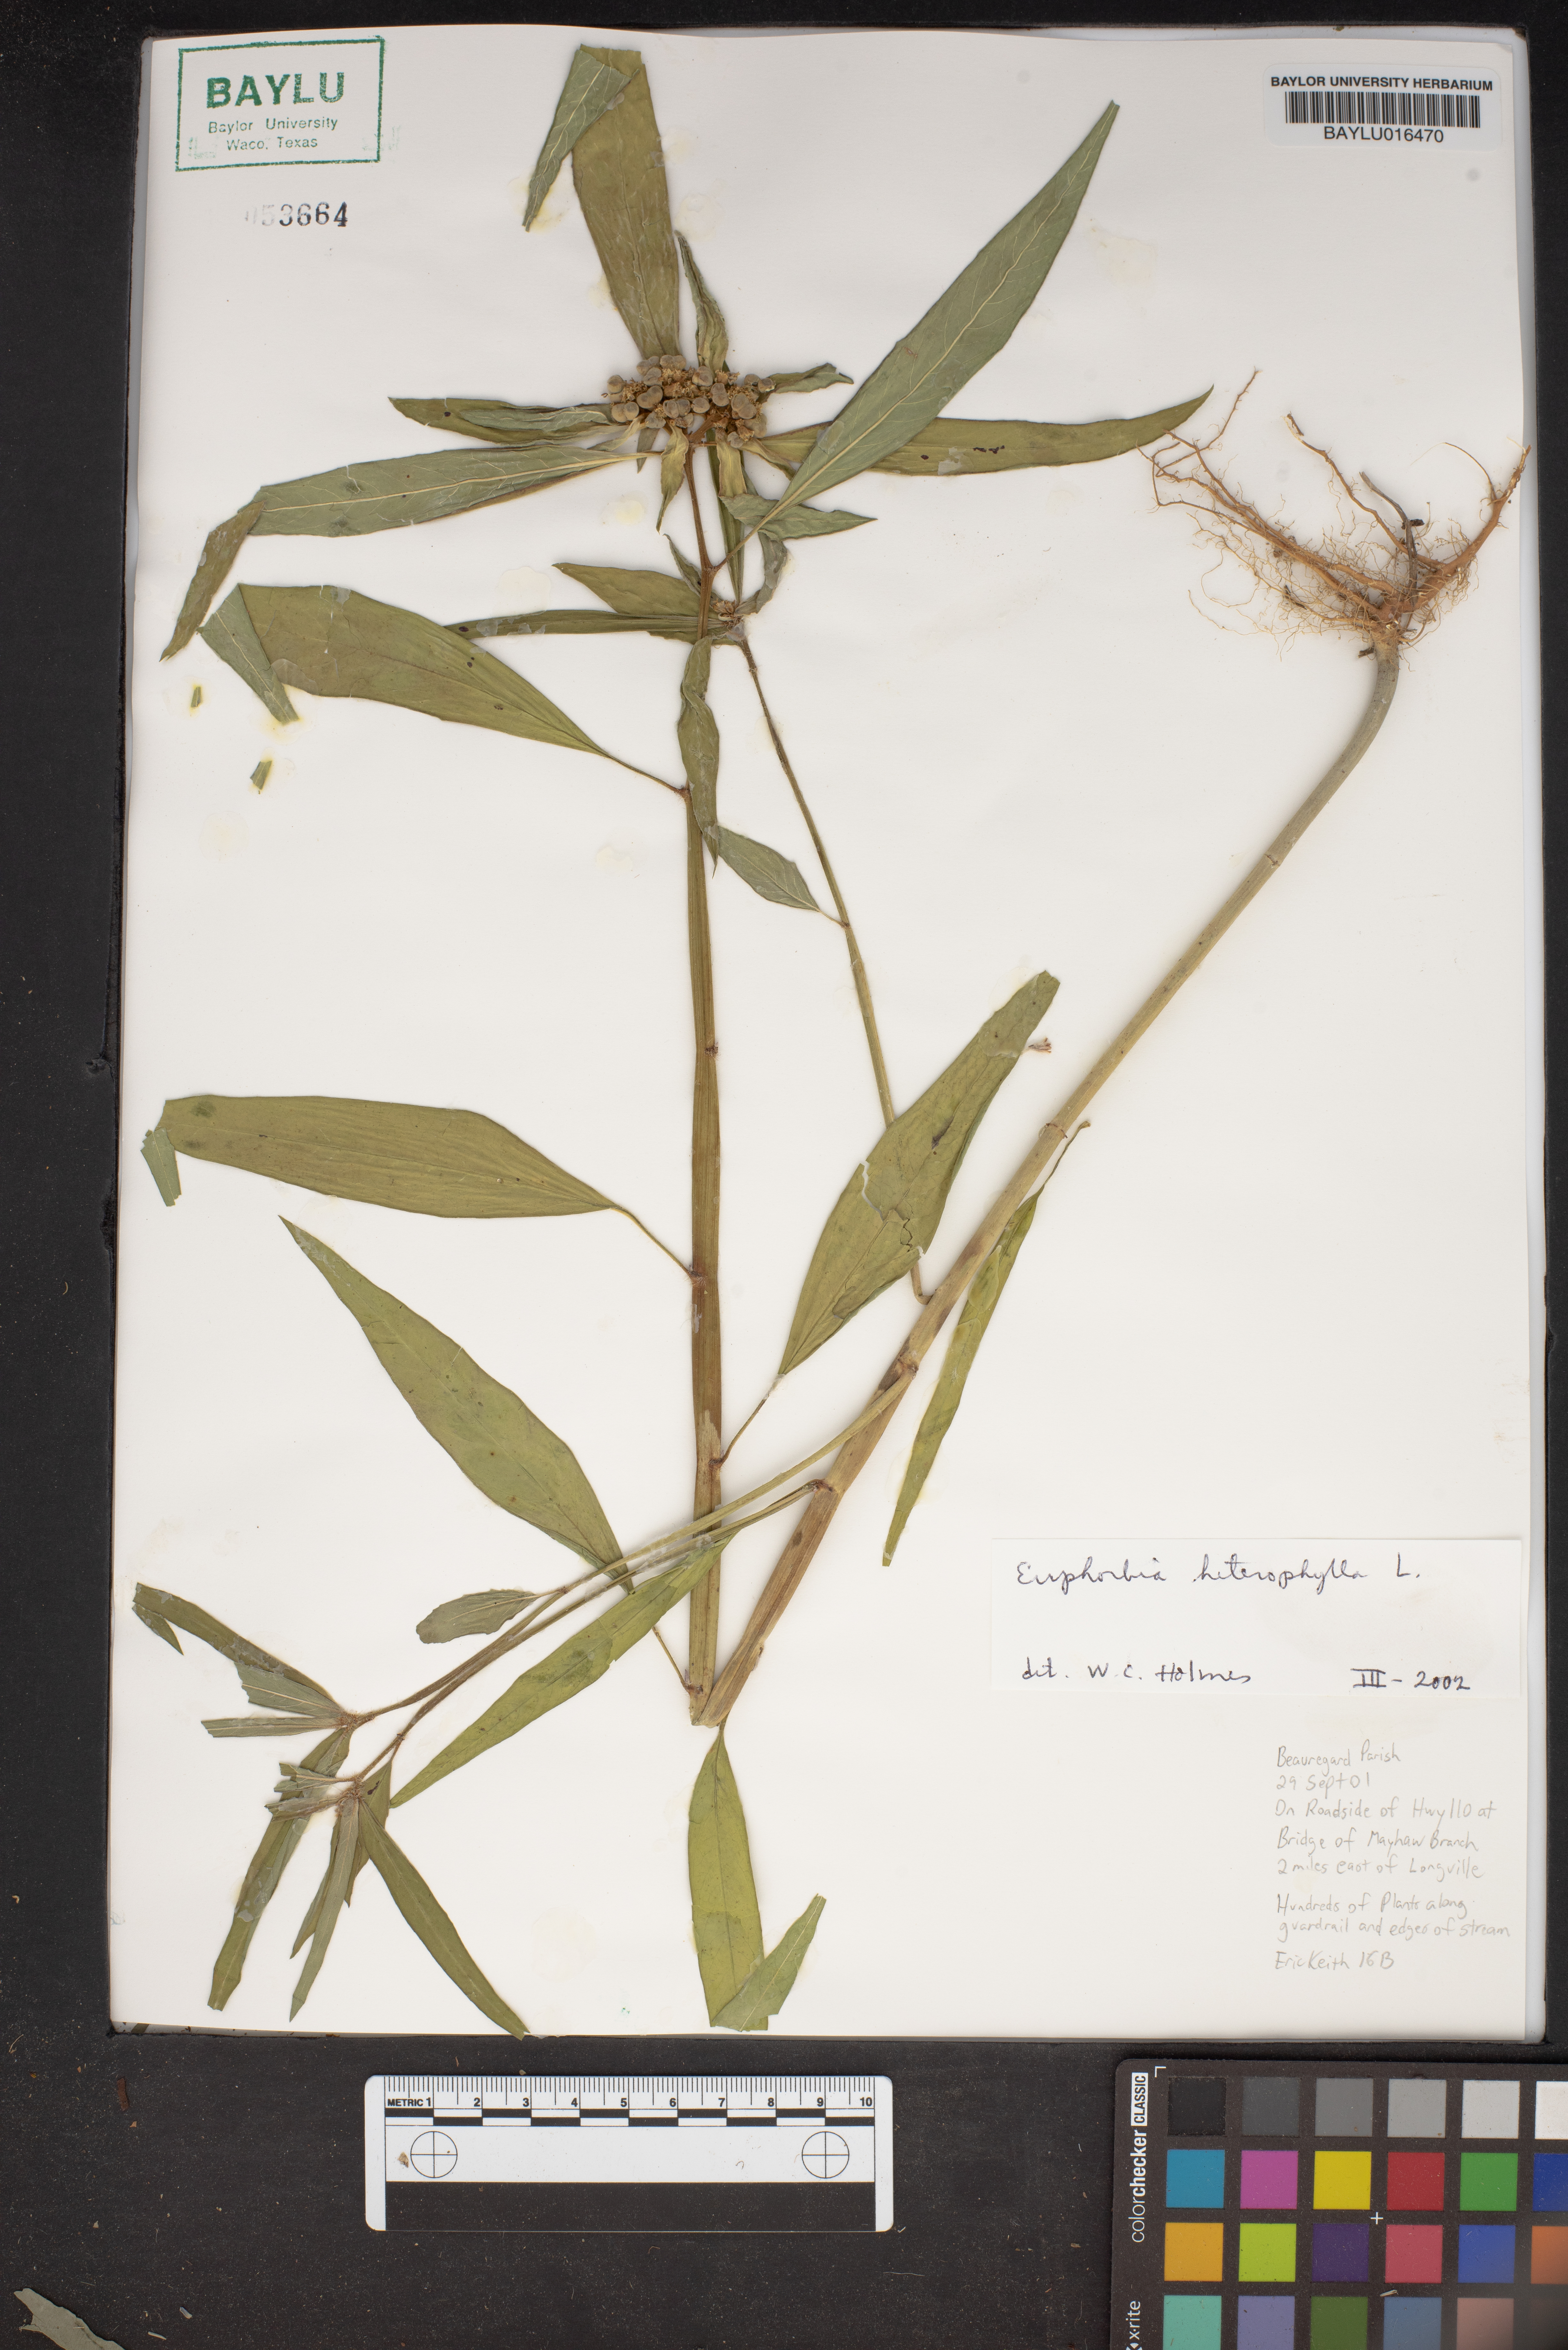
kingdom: Plantae
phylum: Tracheophyta
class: Magnoliopsida
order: Malpighiales
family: Euphorbiaceae
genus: Euphorbia
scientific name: Euphorbia heterophylla
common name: Mexican fireplant
